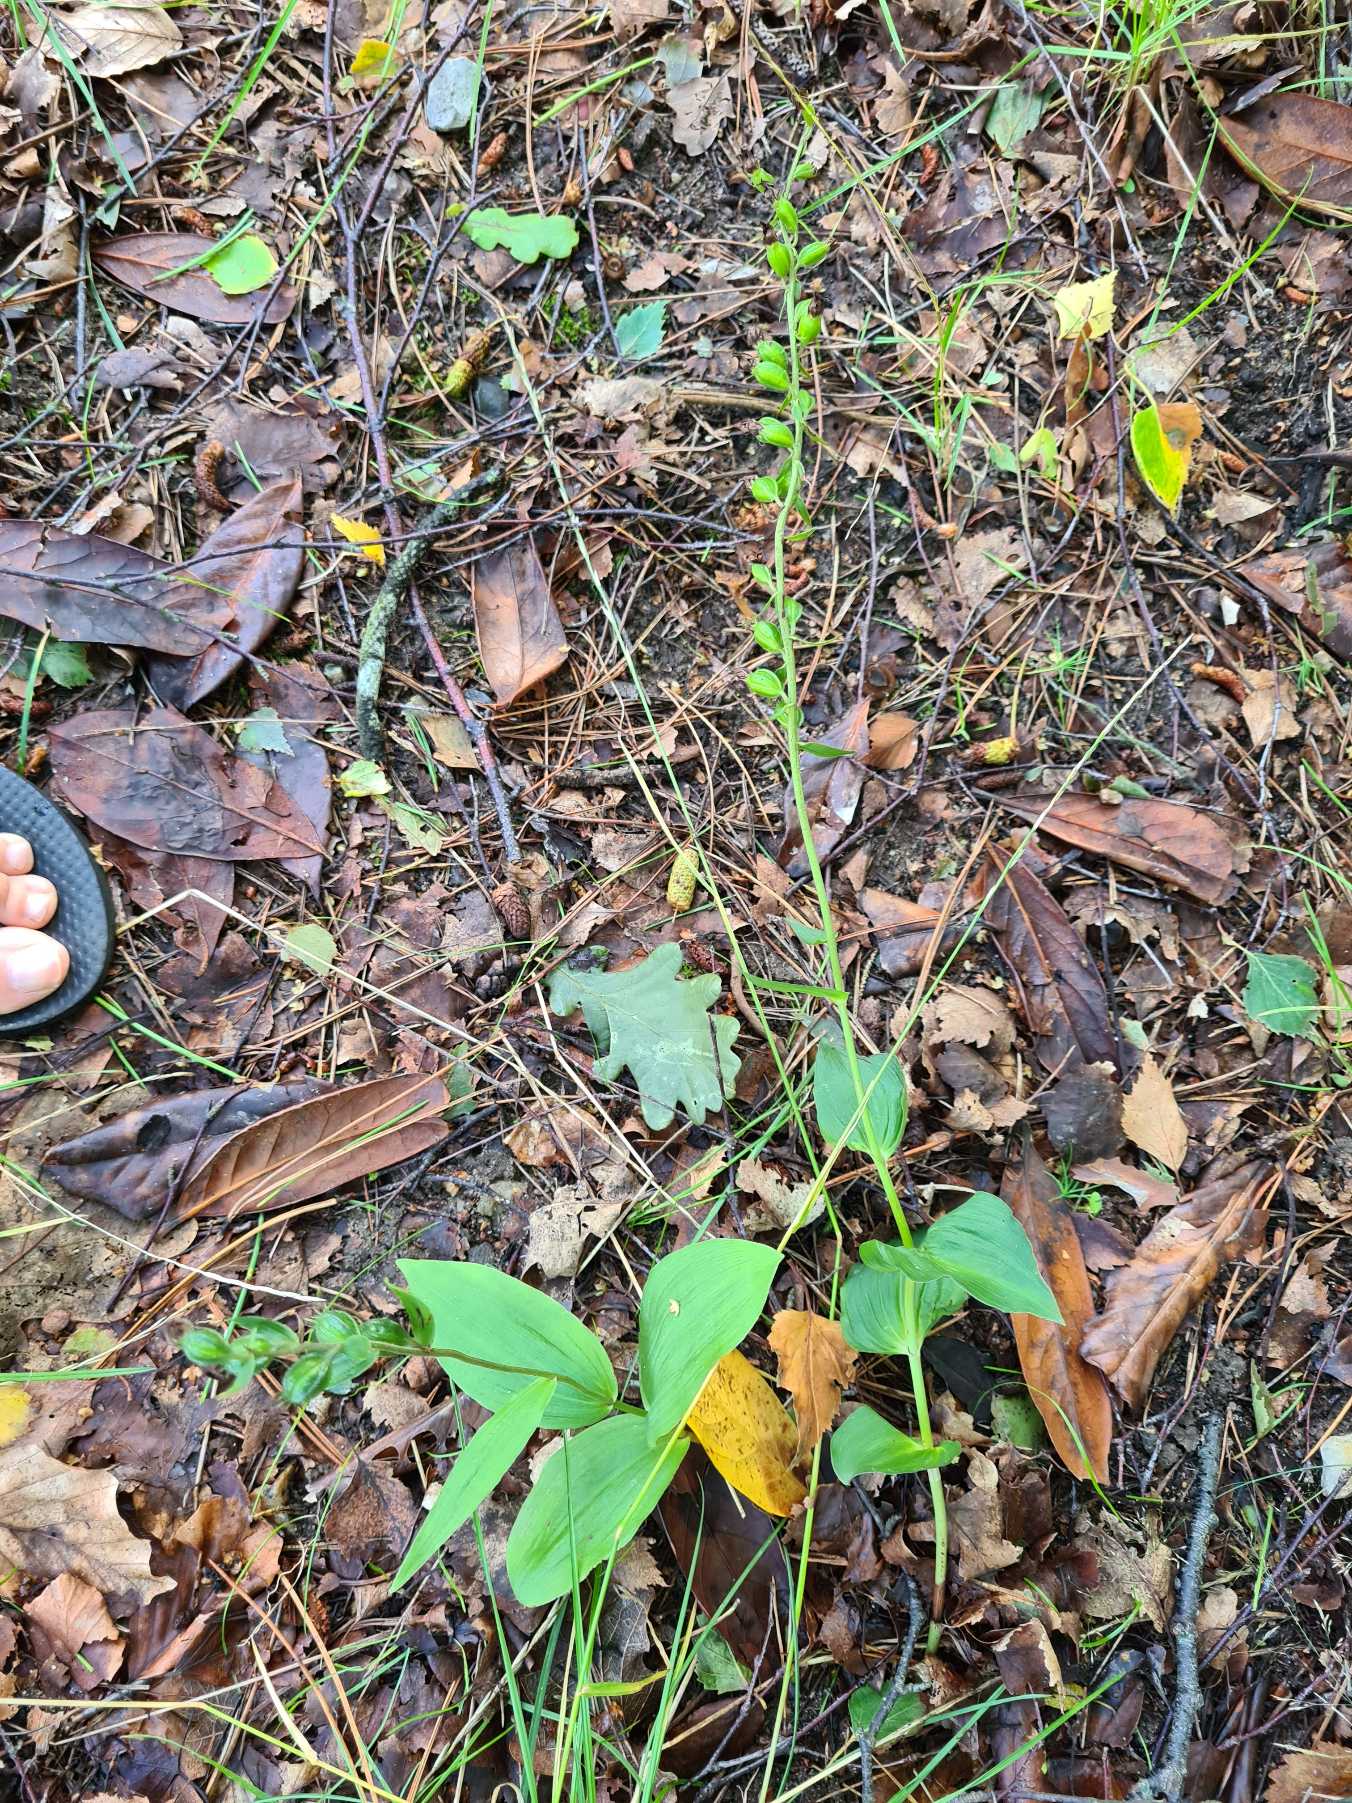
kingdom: Plantae
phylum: Tracheophyta
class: Liliopsida
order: Asparagales
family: Orchidaceae
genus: Epipactis
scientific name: Epipactis helleborine
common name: Skov-hullæbe
